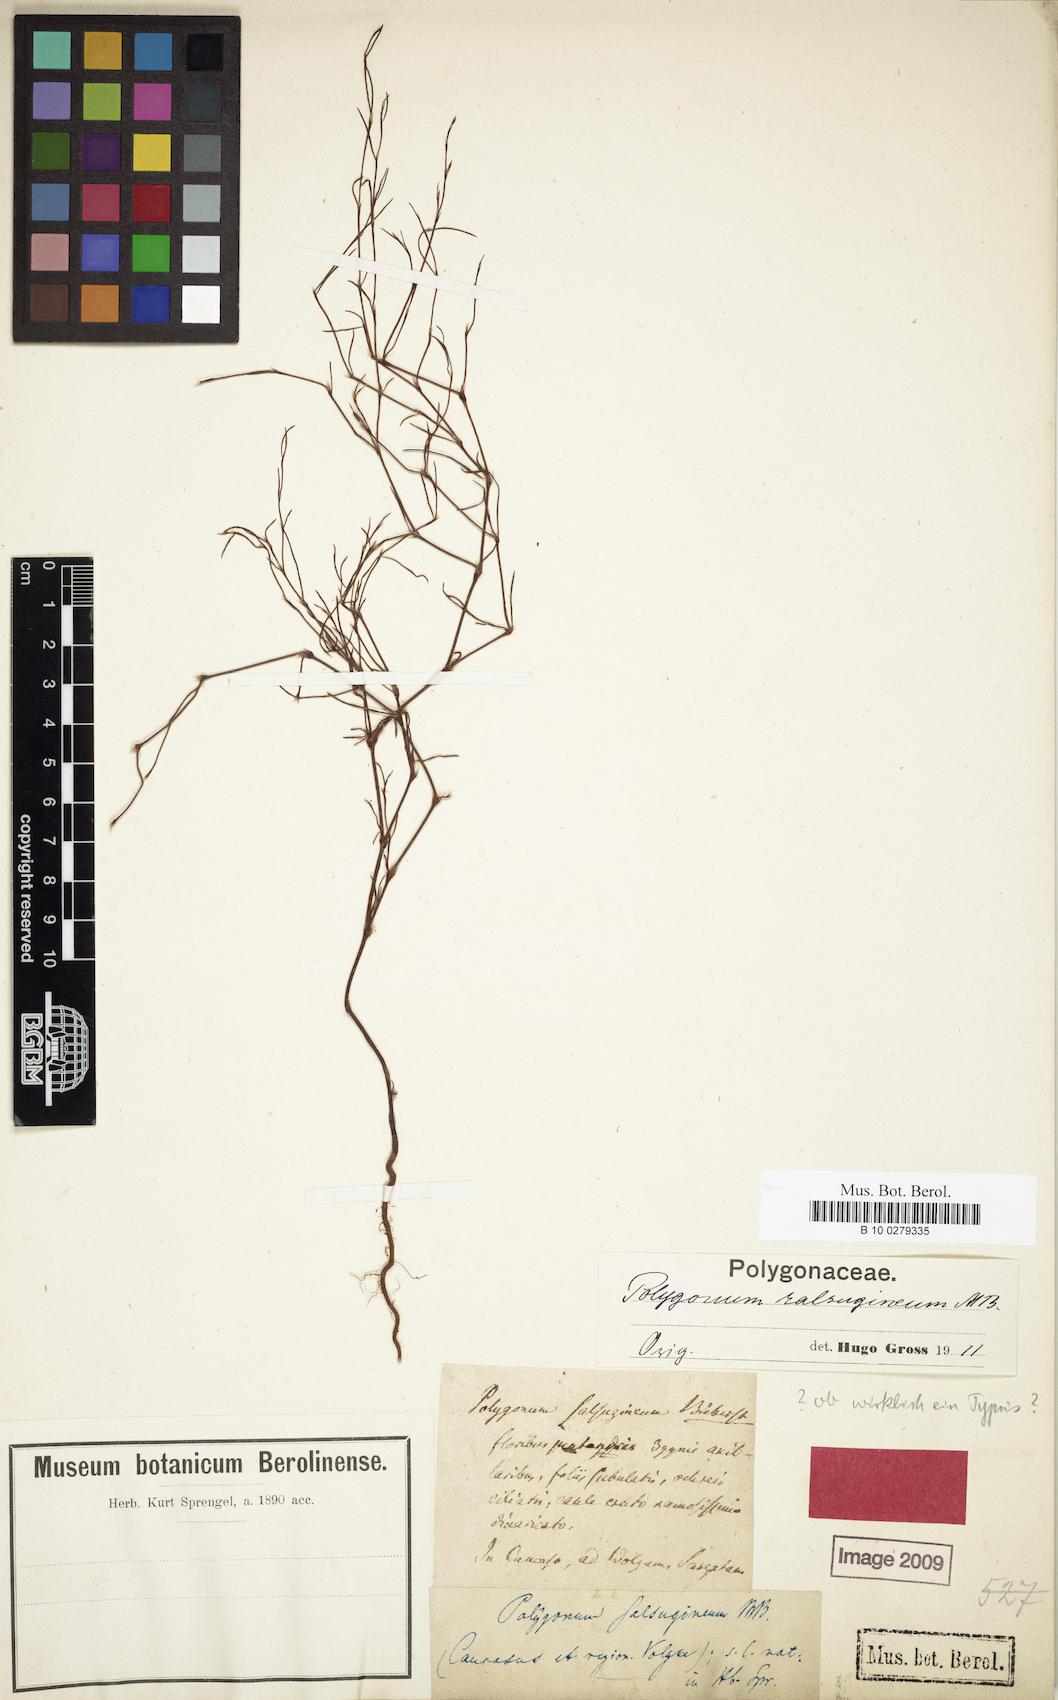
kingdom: Plantae
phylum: Tracheophyta
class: Magnoliopsida
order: Caryophyllales
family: Polygonaceae
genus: Polygonum
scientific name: Polygonum salsugineum
